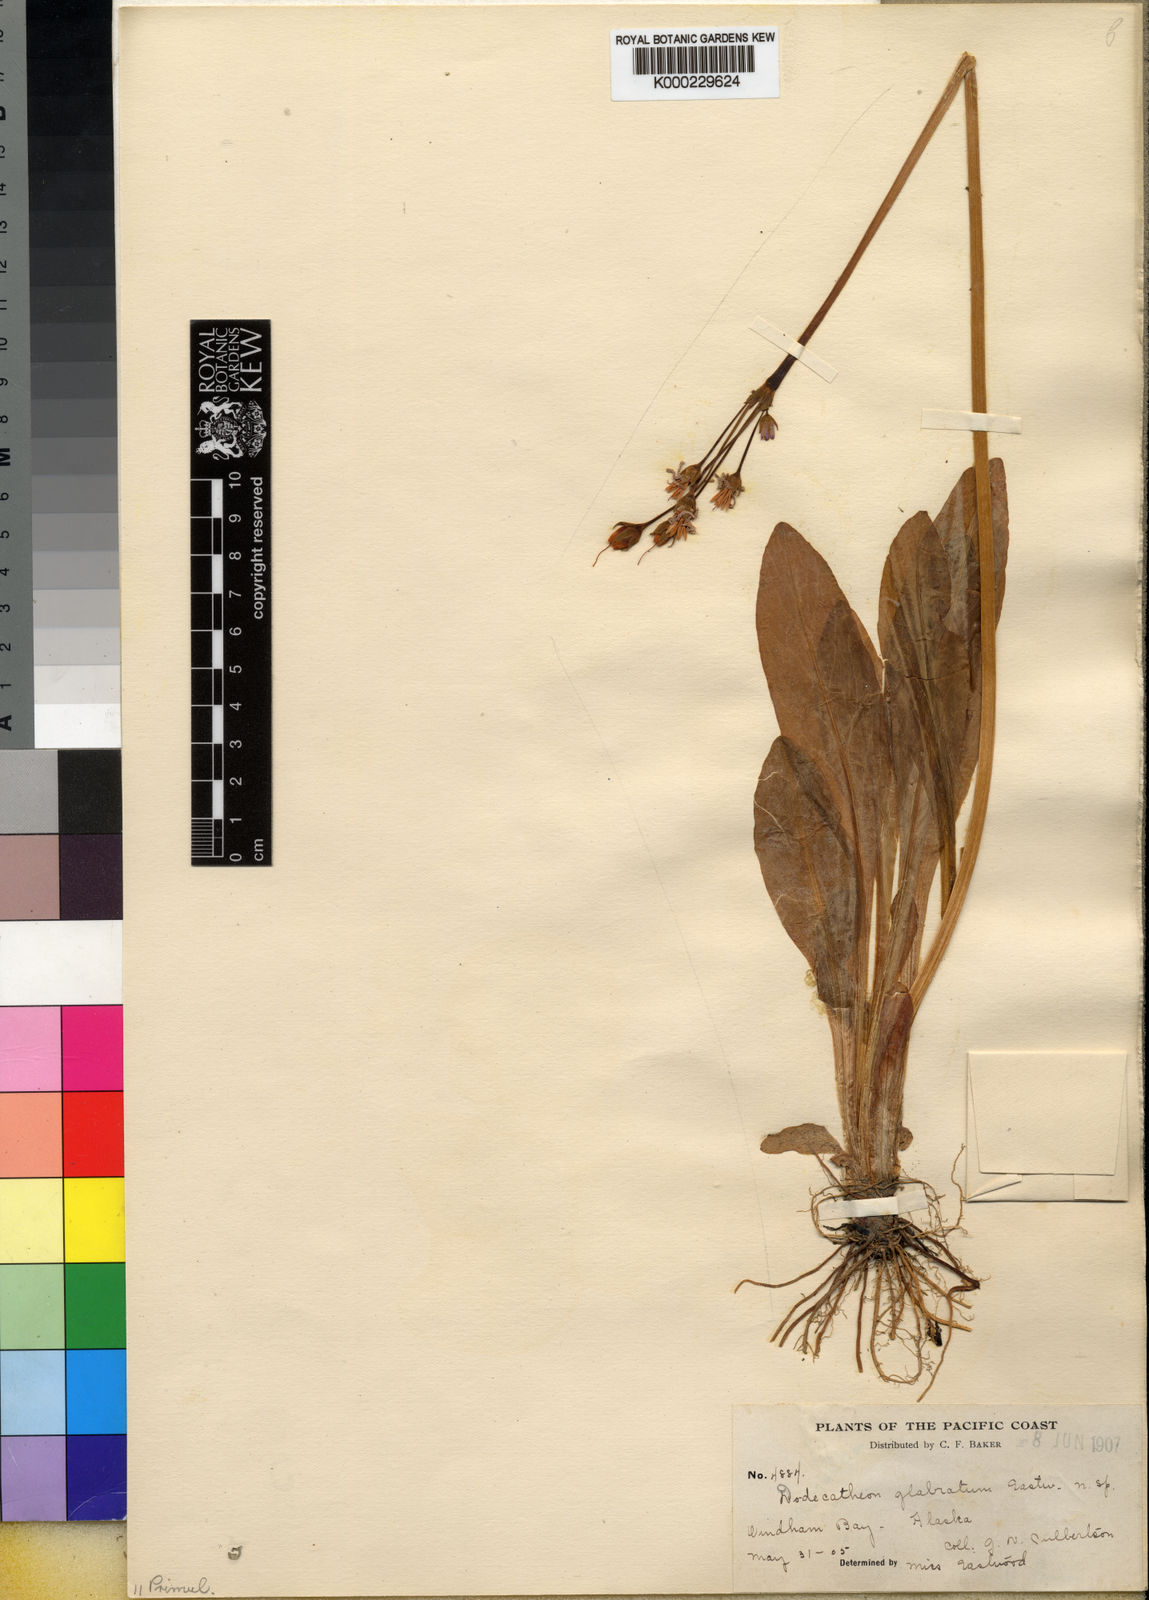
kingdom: Plantae
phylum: Tracheophyta
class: Magnoliopsida
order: Ericales
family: Primulaceae
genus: Dodecatheon
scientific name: Dodecatheon jeffreyanum
